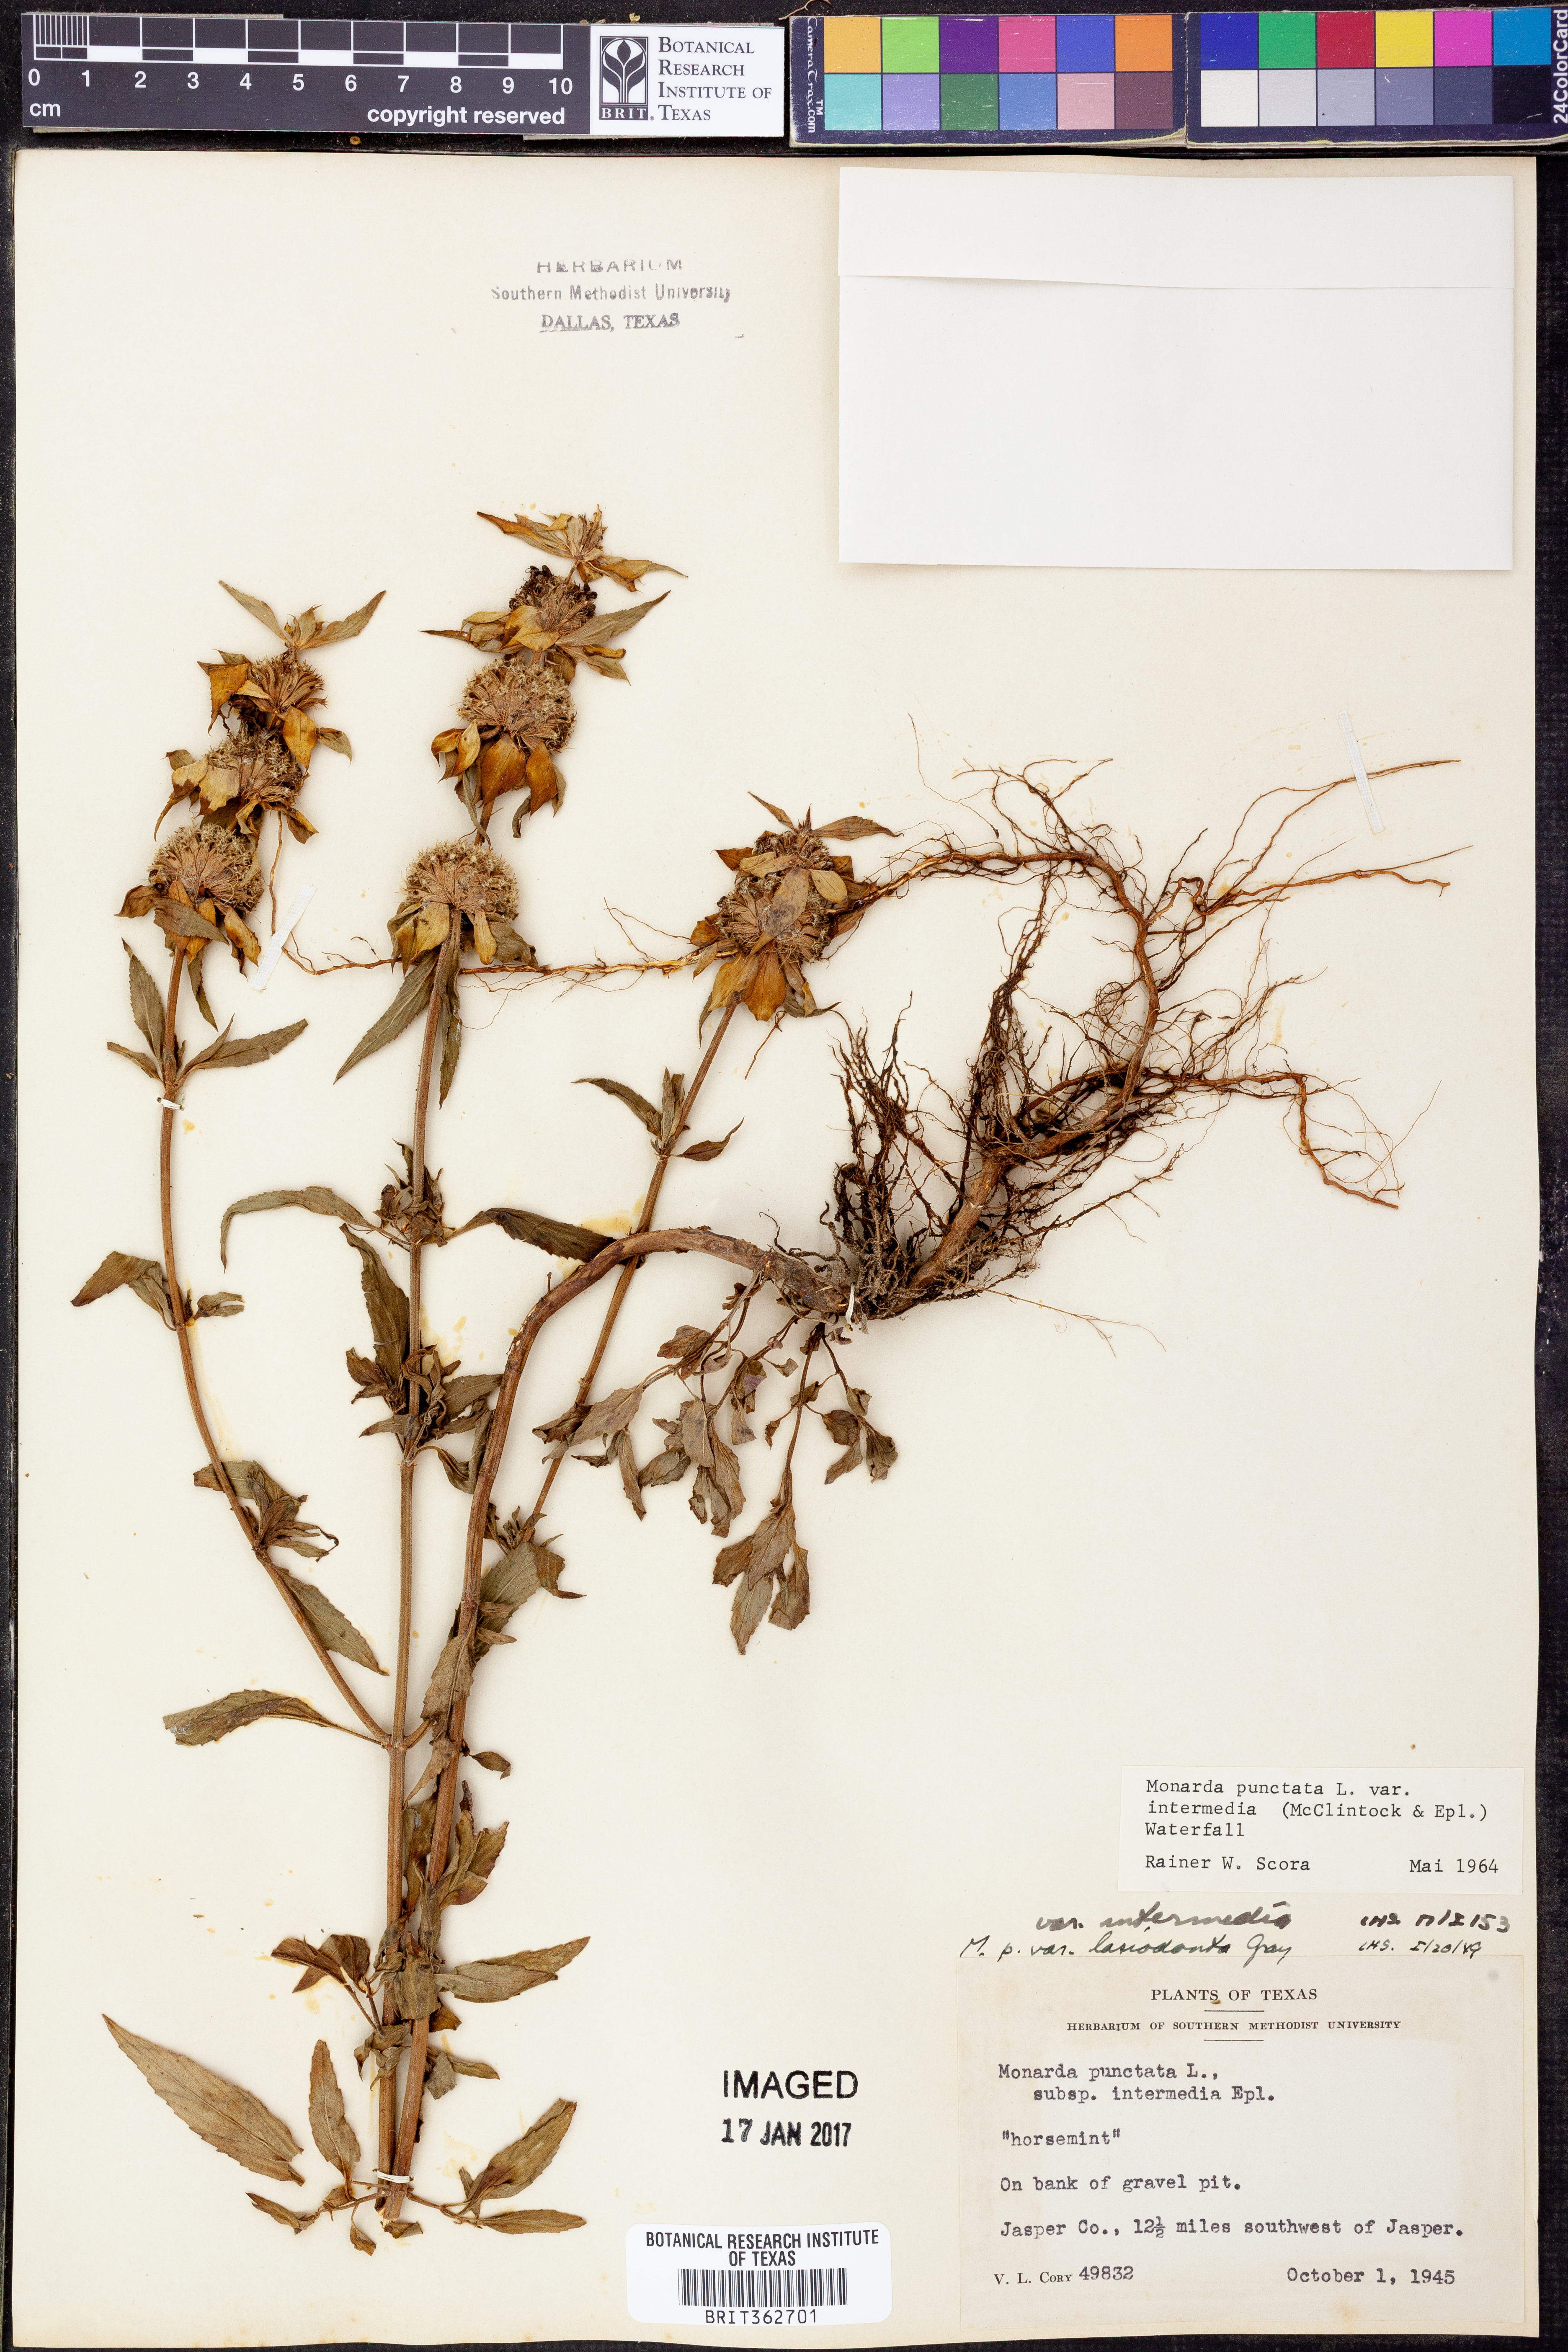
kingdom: Plantae
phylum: Tracheophyta
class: Magnoliopsida
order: Lamiales
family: Lamiaceae
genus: Monarda
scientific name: Monarda punctata
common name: Dotted monarda
